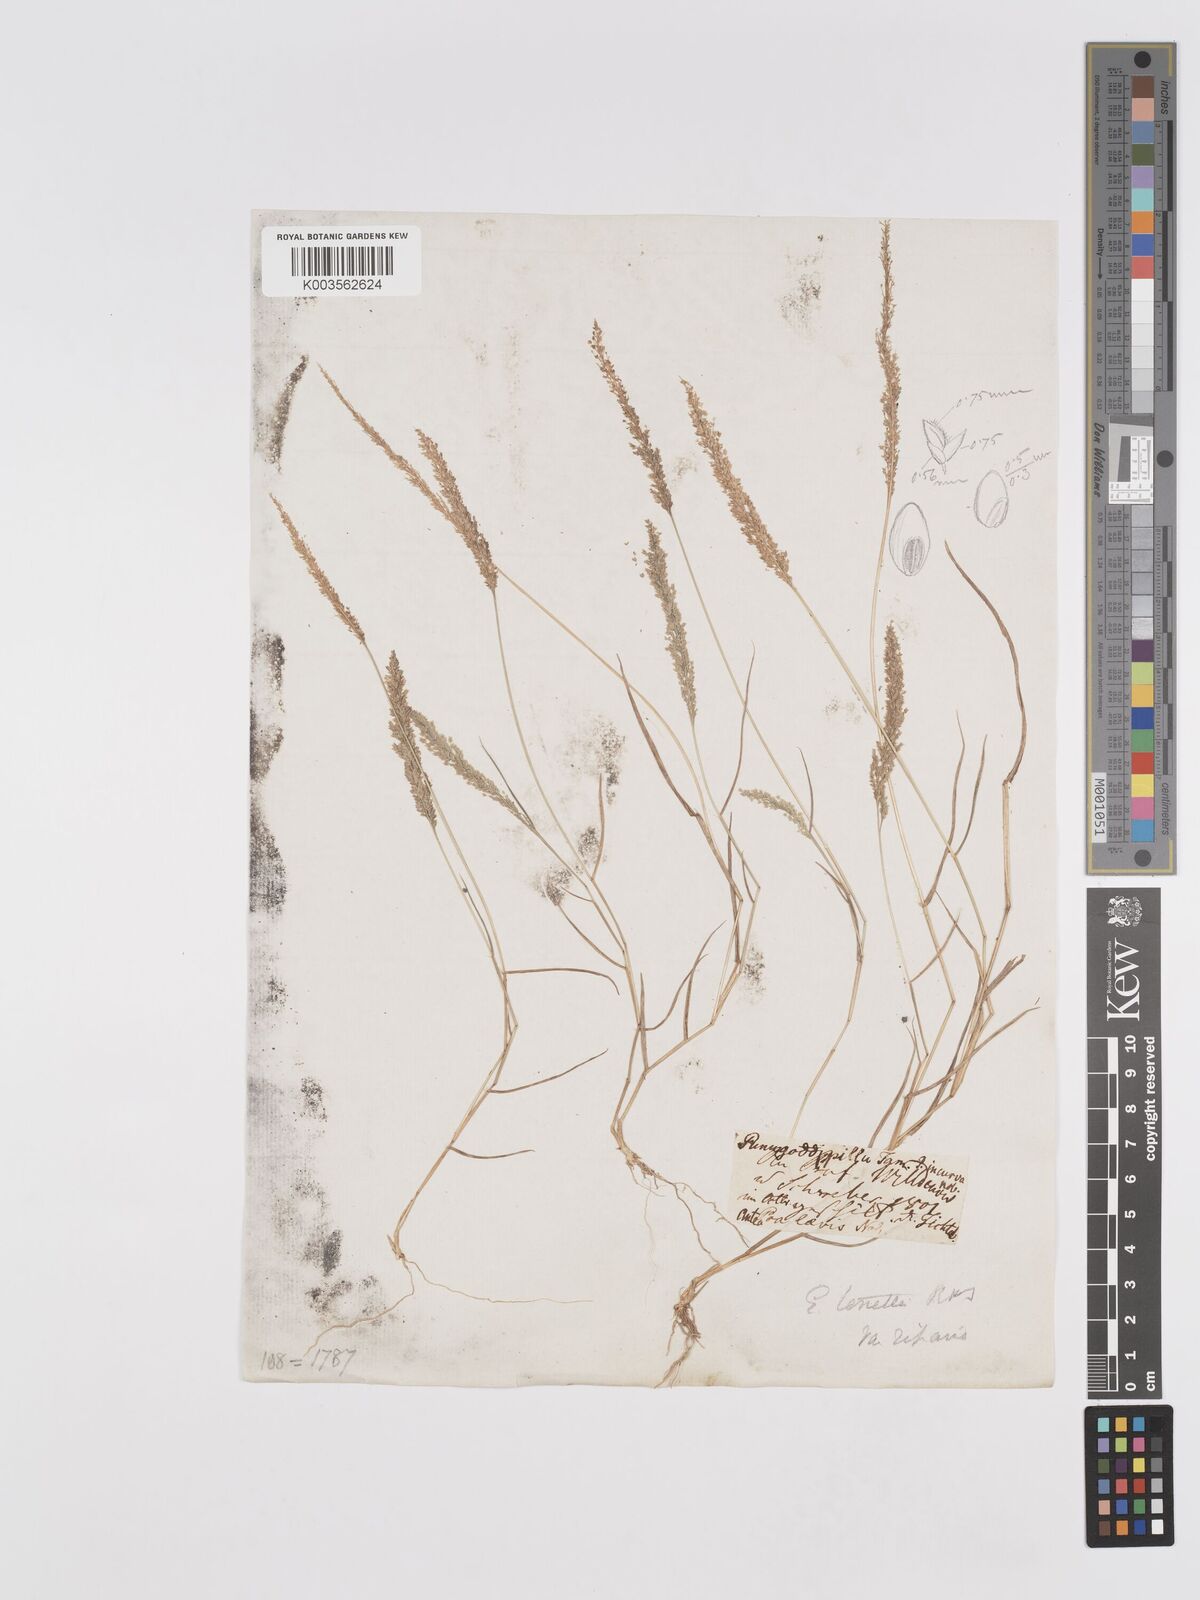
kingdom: Plantae
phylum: Tracheophyta
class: Liliopsida
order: Poales
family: Poaceae
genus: Eragrostis
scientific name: Eragrostis tenella
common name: Japanese lovegrass
